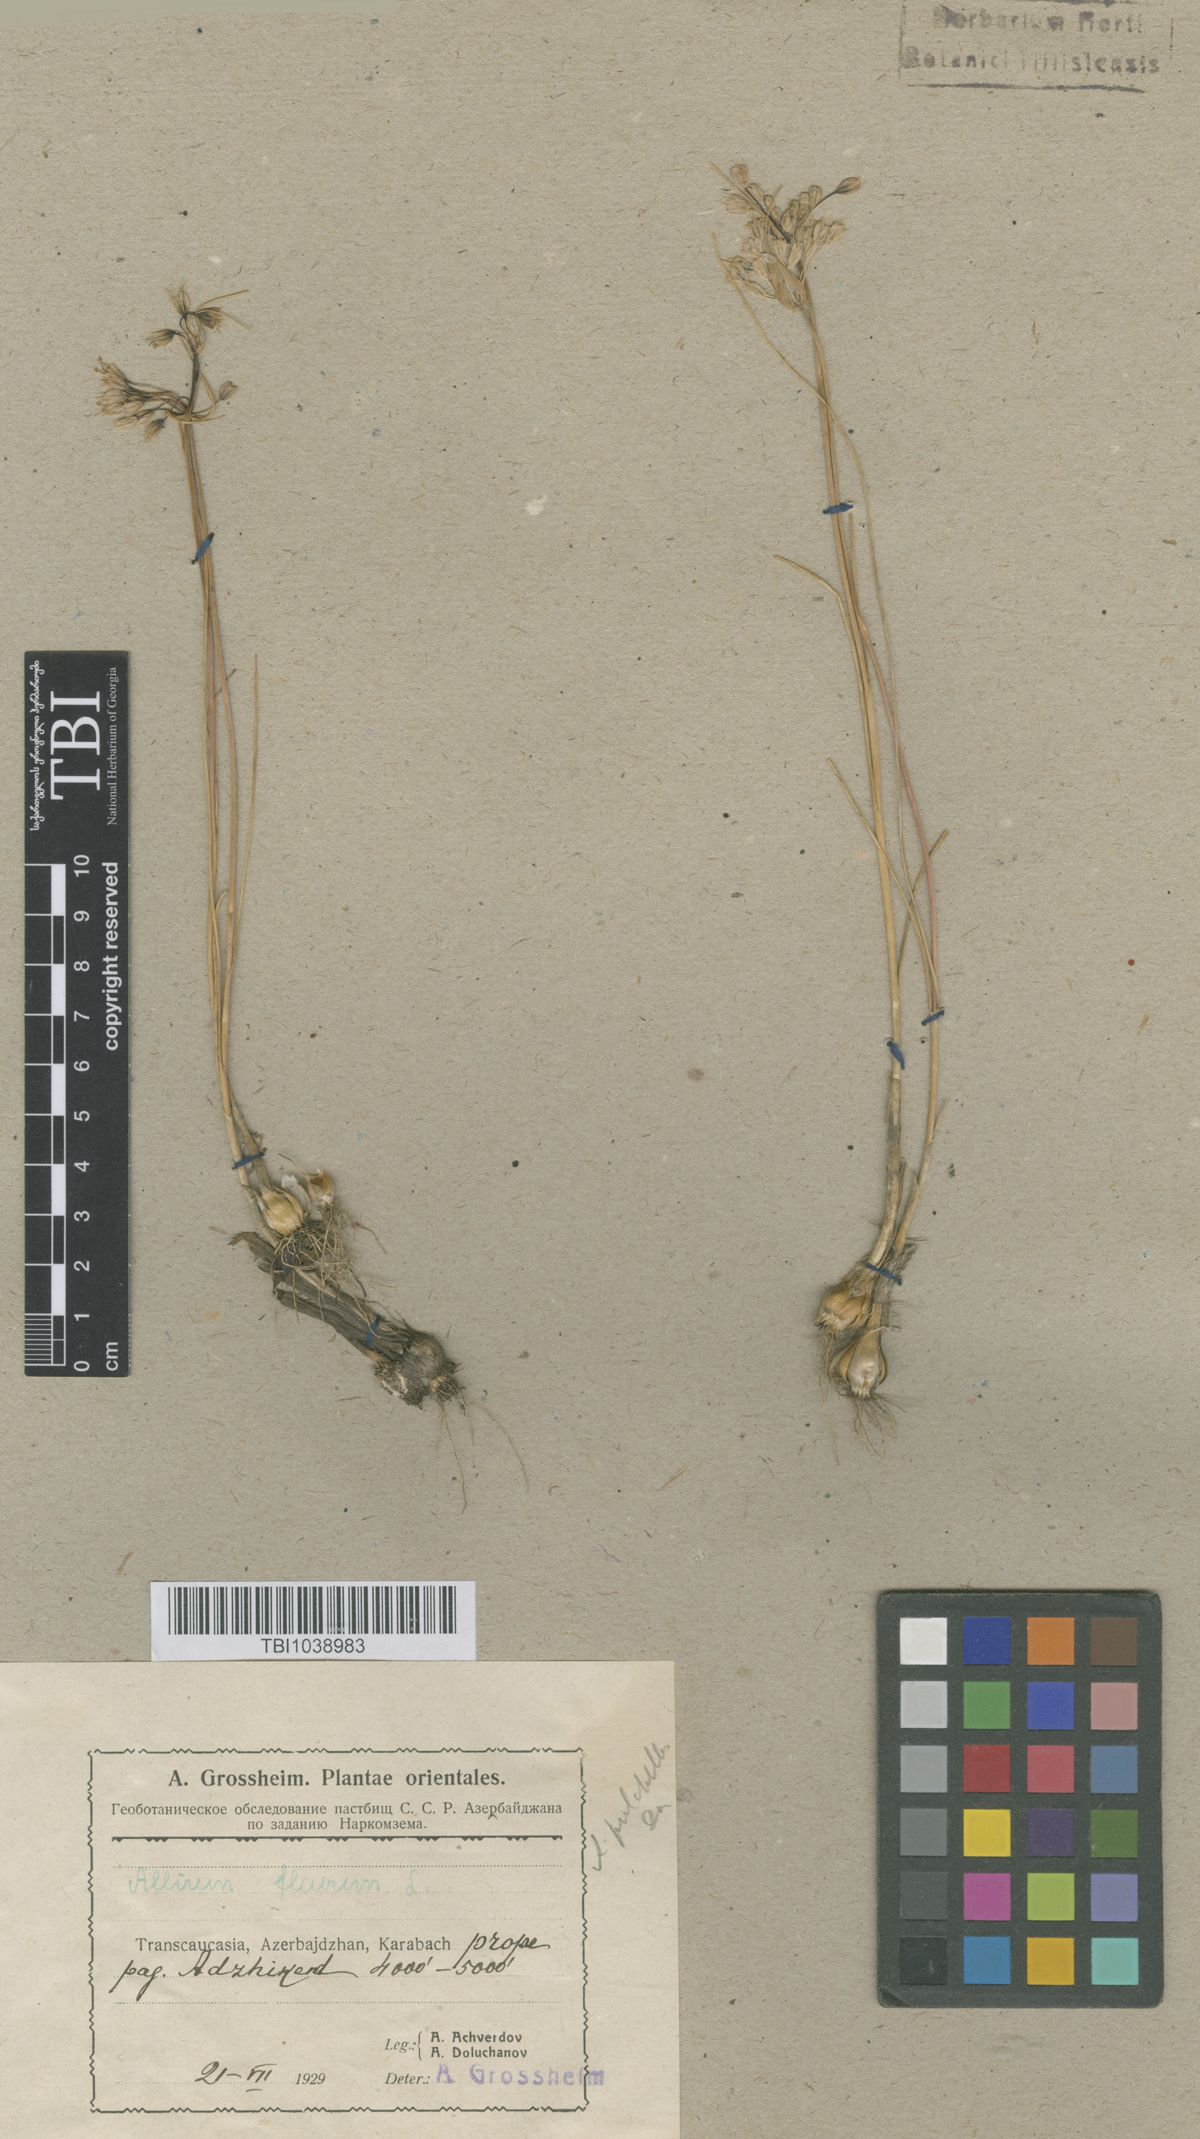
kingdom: Plantae
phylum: Tracheophyta
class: Liliopsida
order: Asparagales
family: Amaryllidaceae
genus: Allium
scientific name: Allium pseudoflavum
